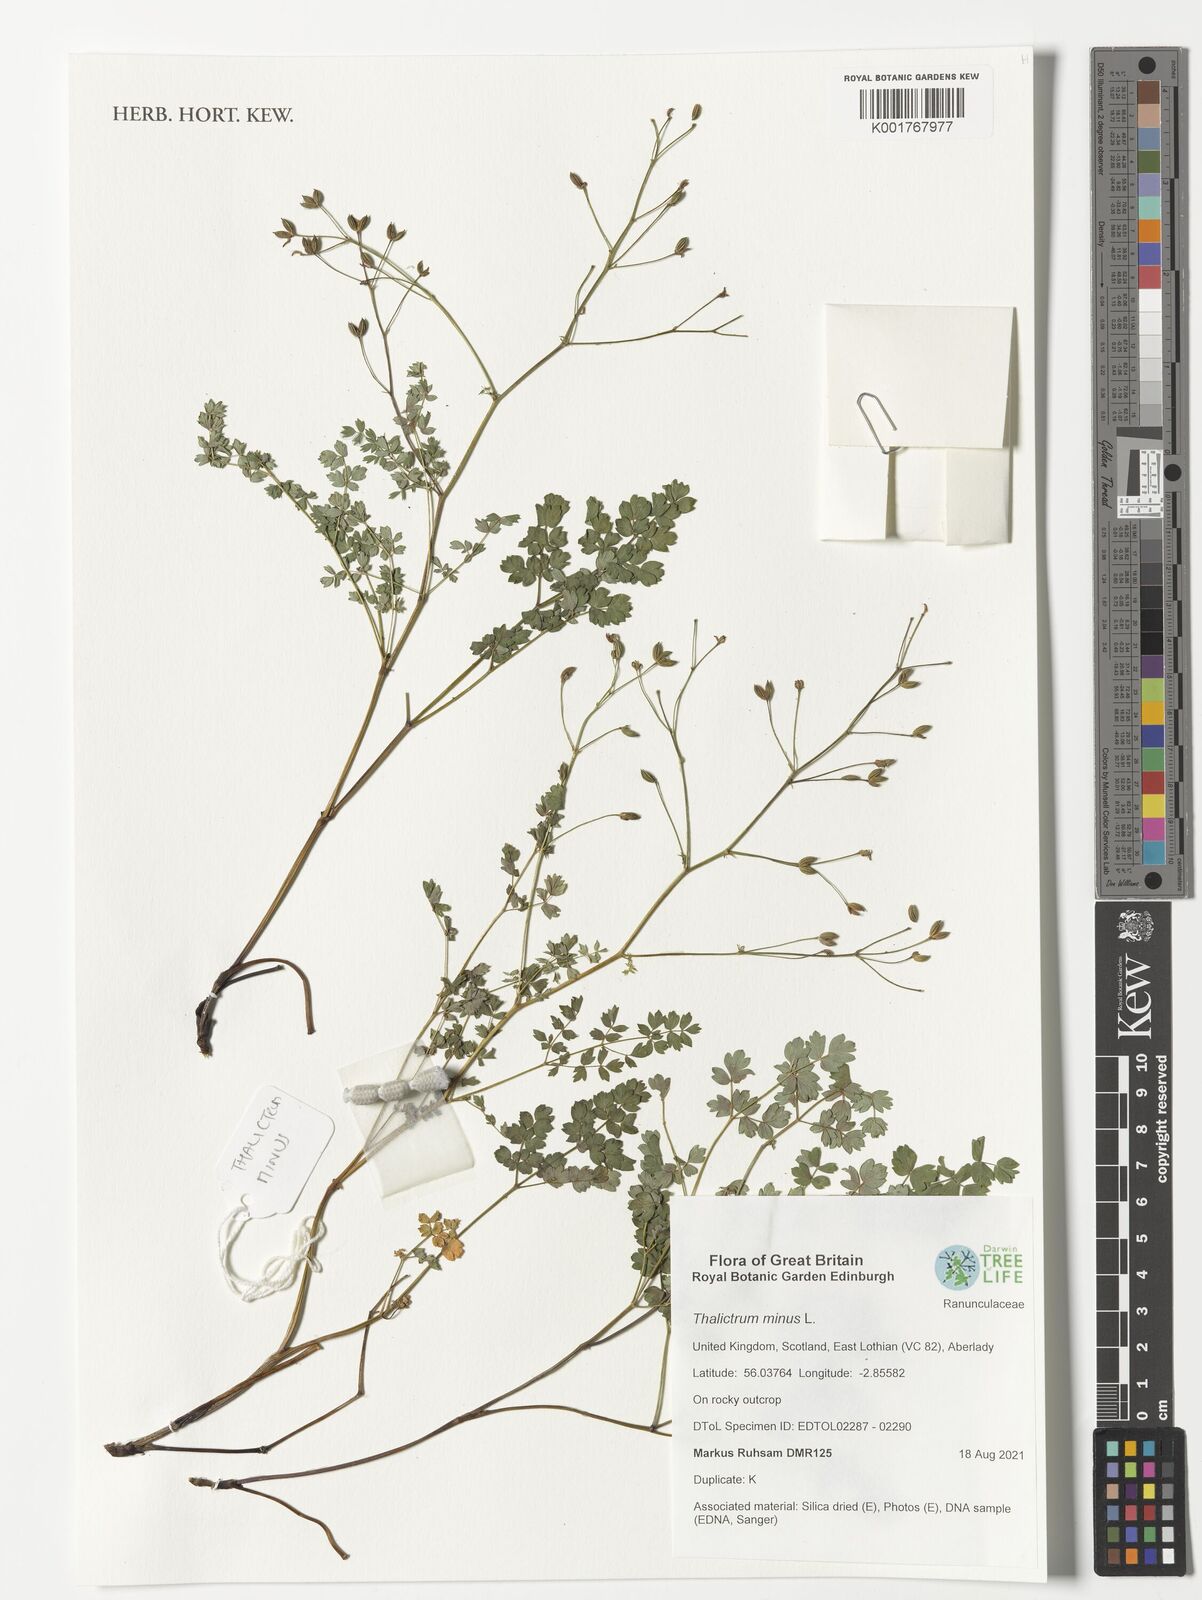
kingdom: Plantae
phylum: Tracheophyta
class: Magnoliopsida
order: Ranunculales
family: Ranunculaceae
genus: Thalictrum
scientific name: Thalictrum minus
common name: Lesser meadow-rue
